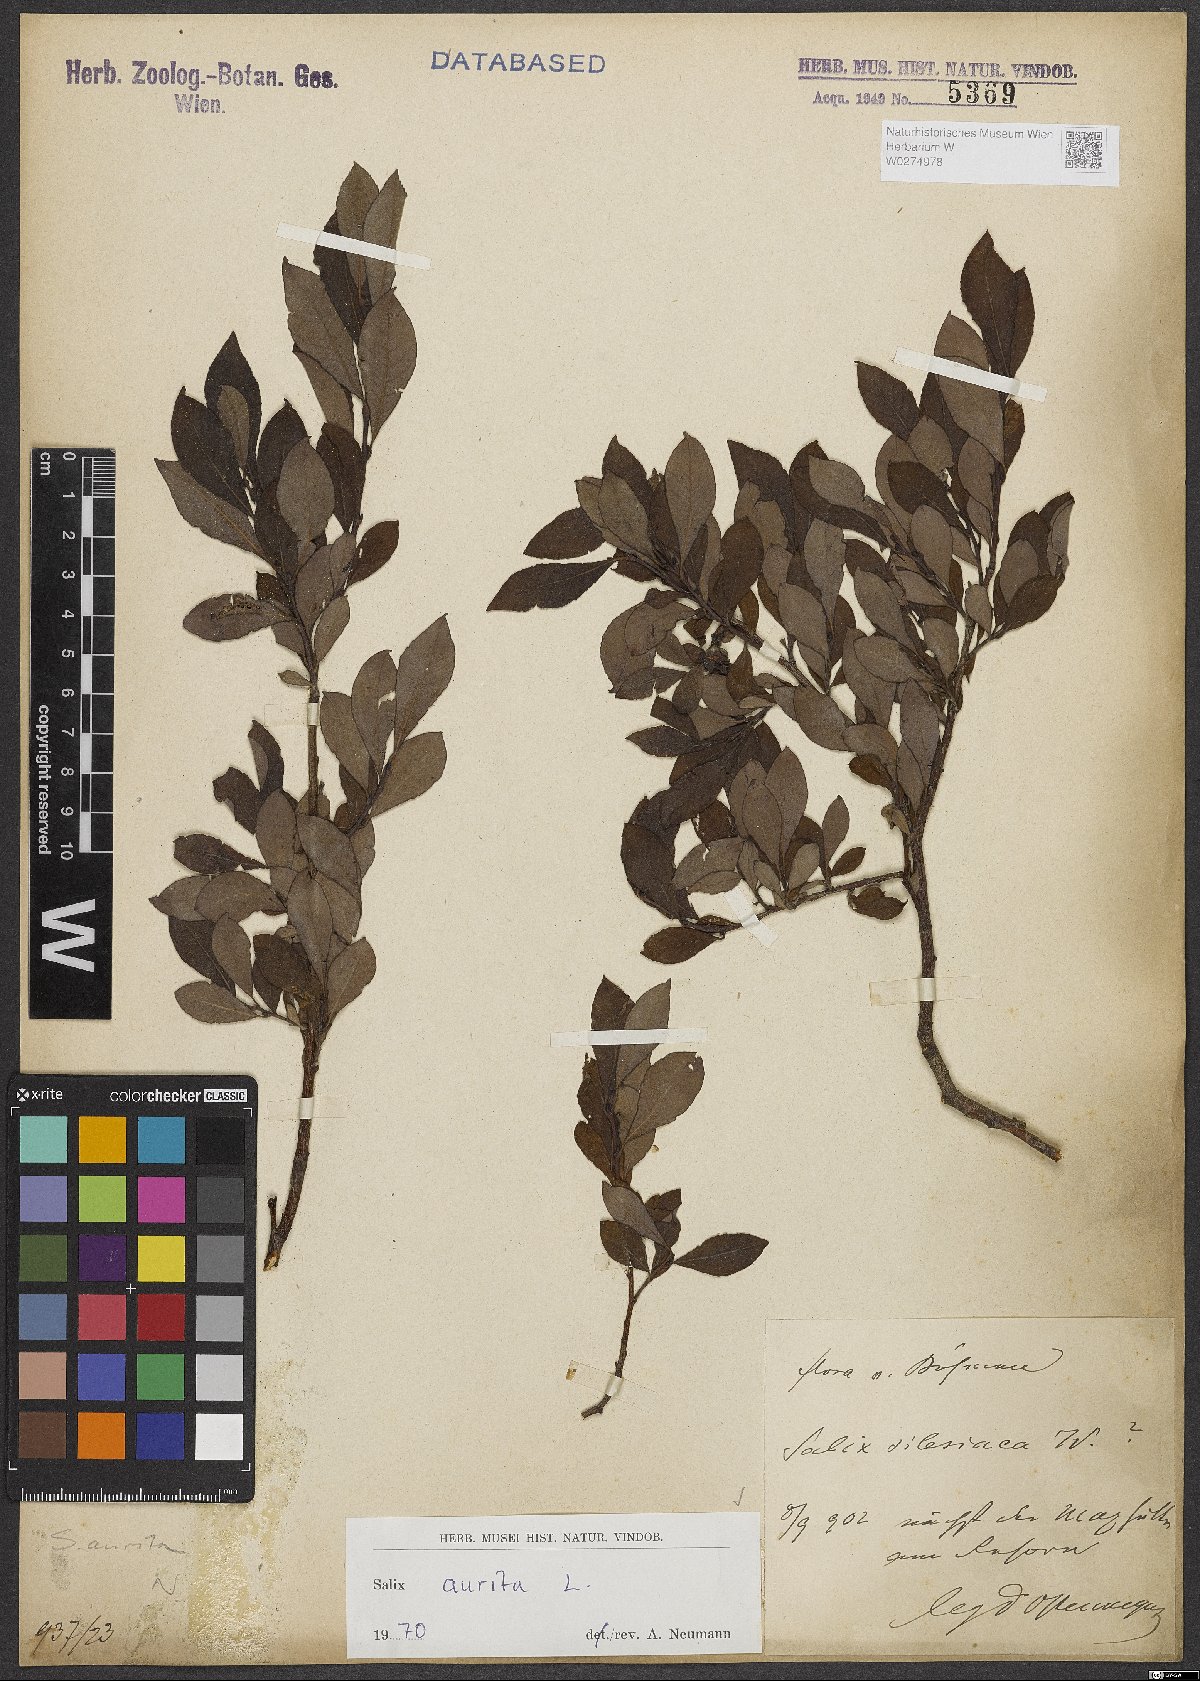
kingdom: Plantae
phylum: Tracheophyta
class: Magnoliopsida
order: Malpighiales
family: Salicaceae
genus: Salix
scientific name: Salix aurita
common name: Eared willow
